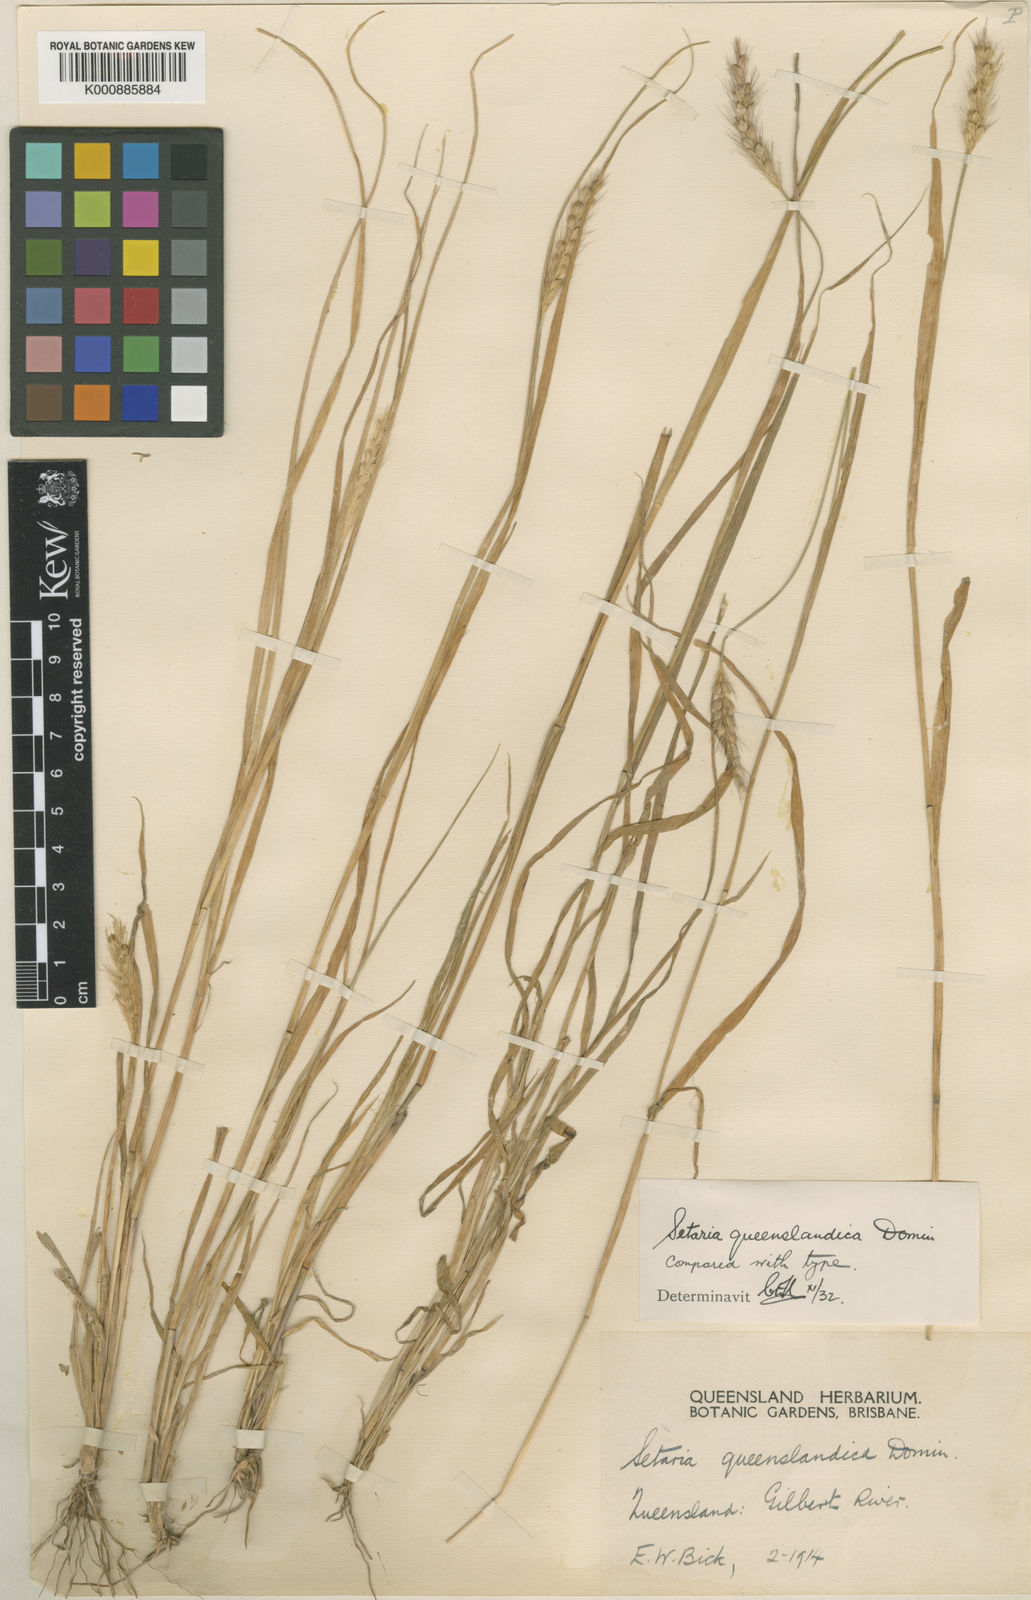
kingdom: Plantae
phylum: Tracheophyta
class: Liliopsida
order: Poales
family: Poaceae
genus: Setaria
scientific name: Setaria queenslandica
